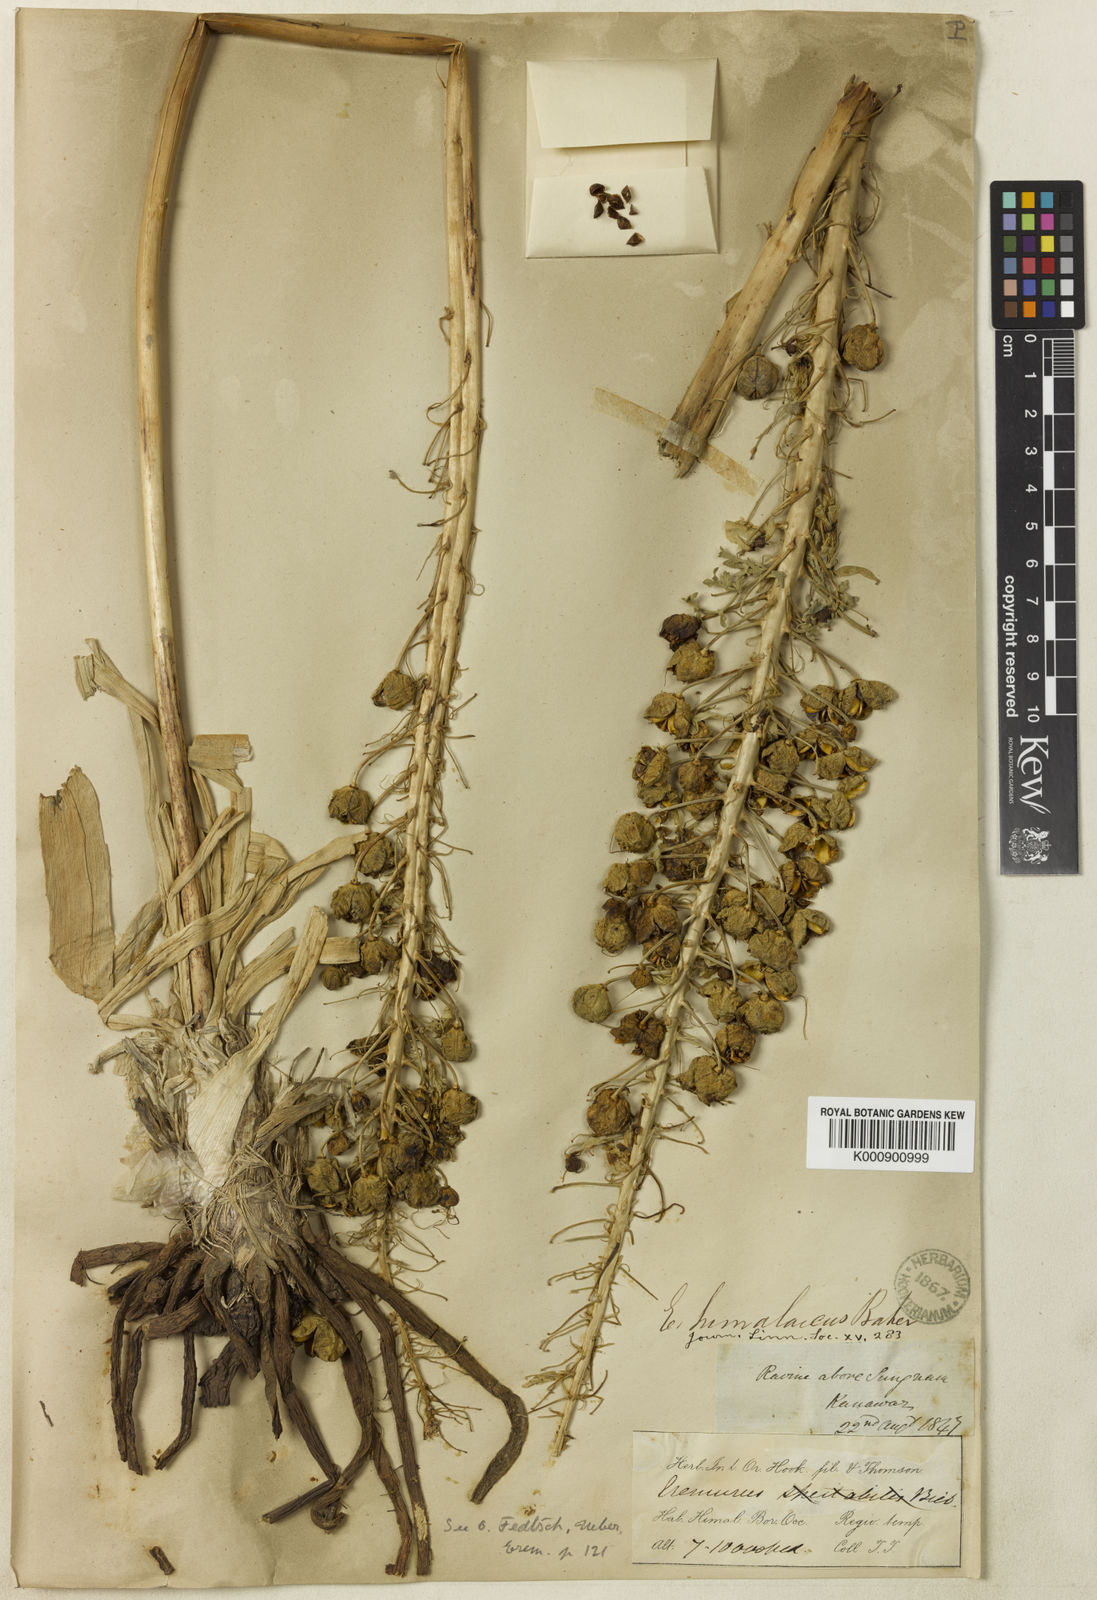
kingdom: Plantae
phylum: Tracheophyta
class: Liliopsida
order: Asparagales
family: Asphodelaceae
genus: Eremurus
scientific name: Eremurus himalaicus
